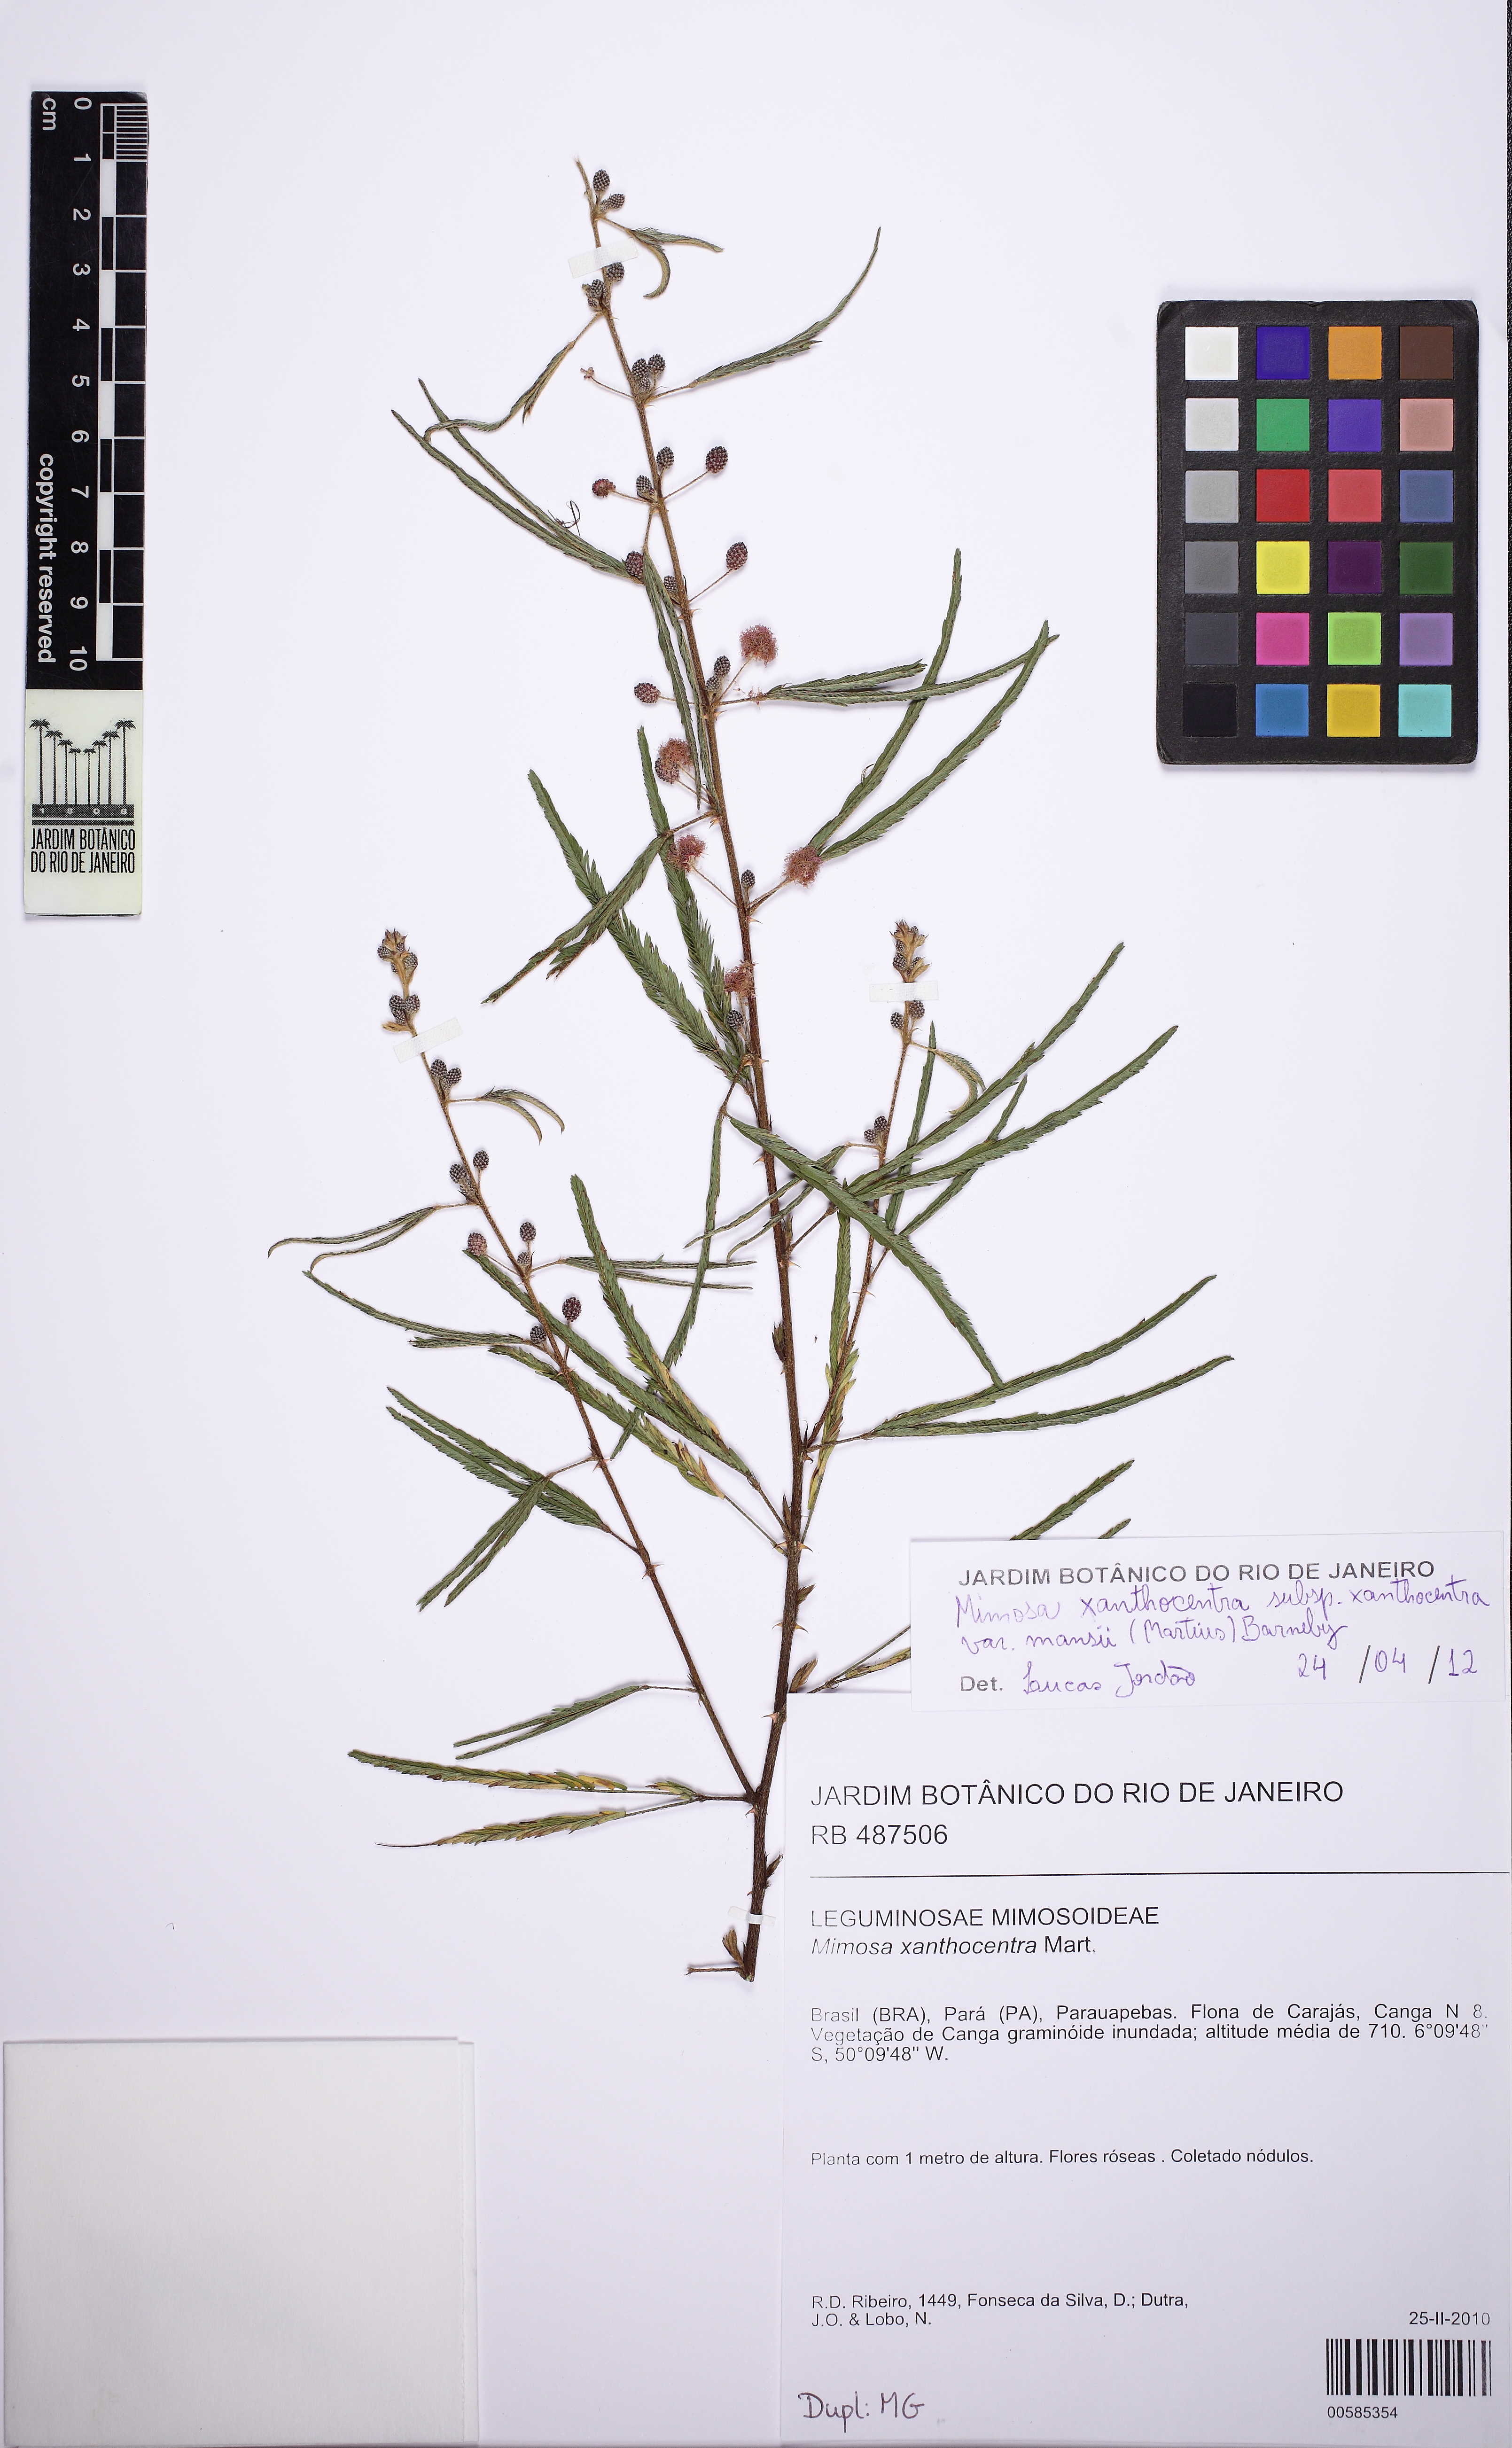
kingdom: Plantae
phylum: Tracheophyta
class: Magnoliopsida
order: Fabales
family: Fabaceae
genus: Mimosa
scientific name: Mimosa xanthocentra
